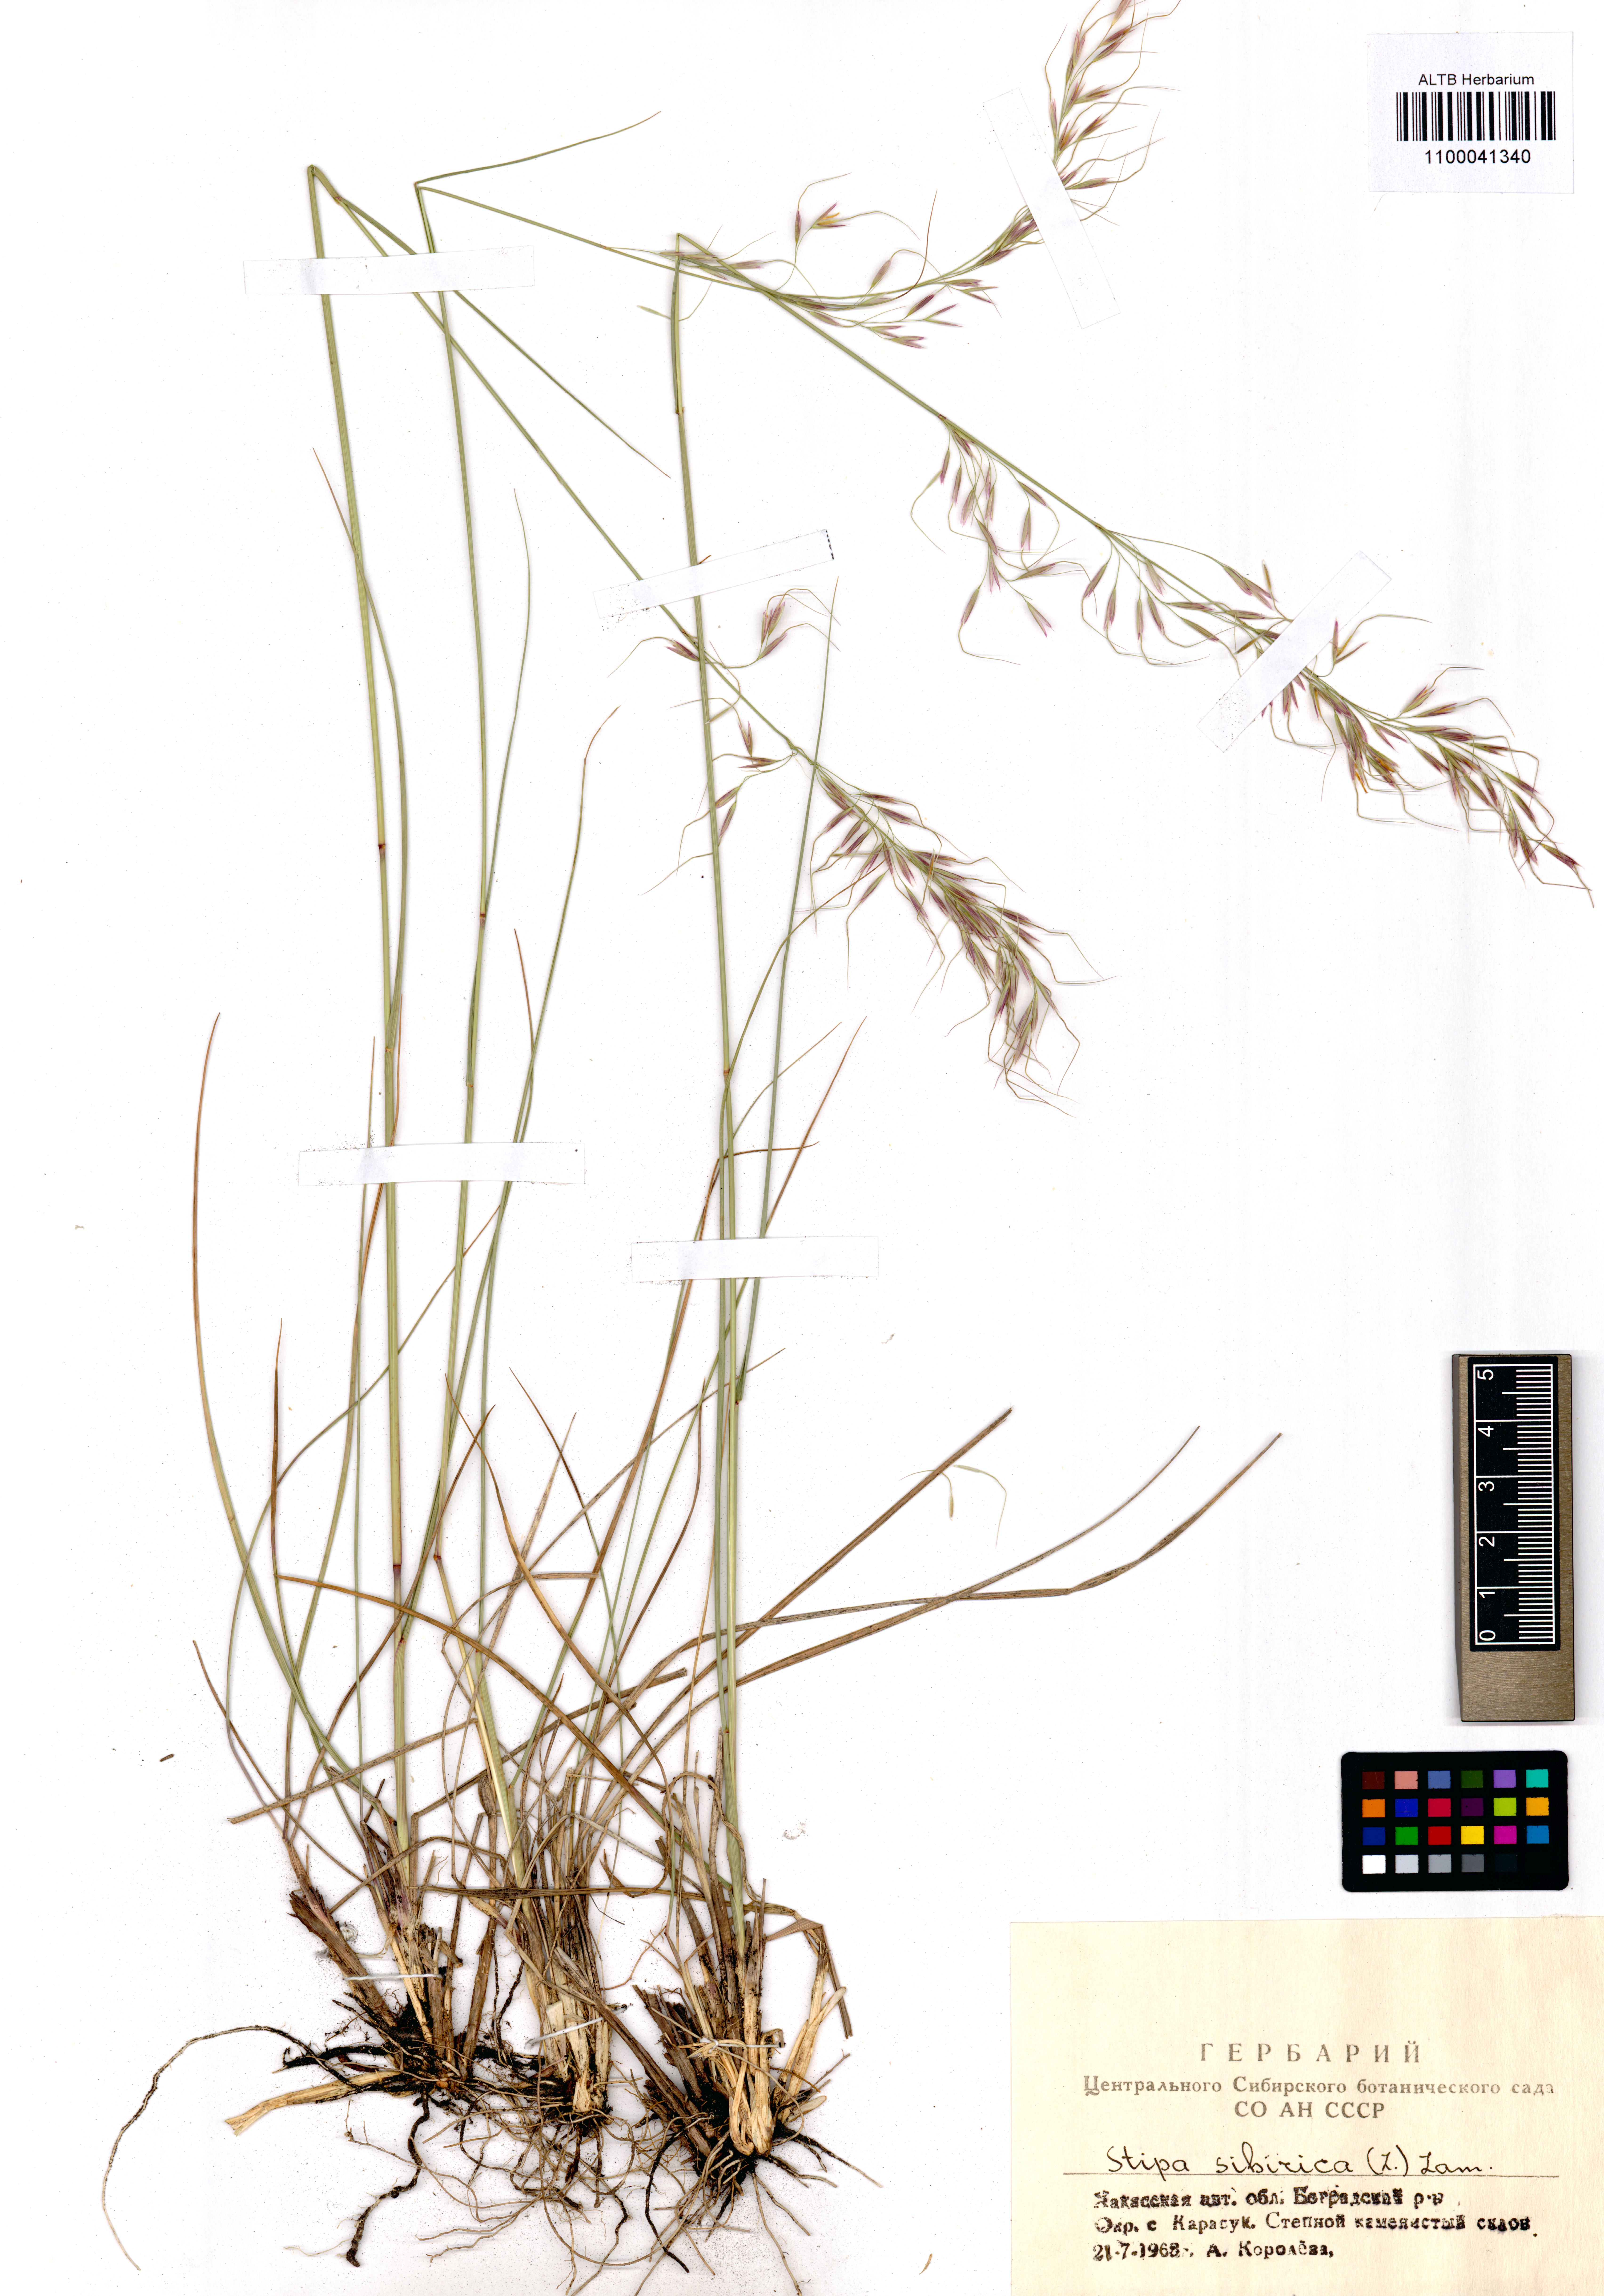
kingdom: Plantae
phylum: Tracheophyta
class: Liliopsida
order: Poales
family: Poaceae
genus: Achnatherum
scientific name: Achnatherum sibiricum
